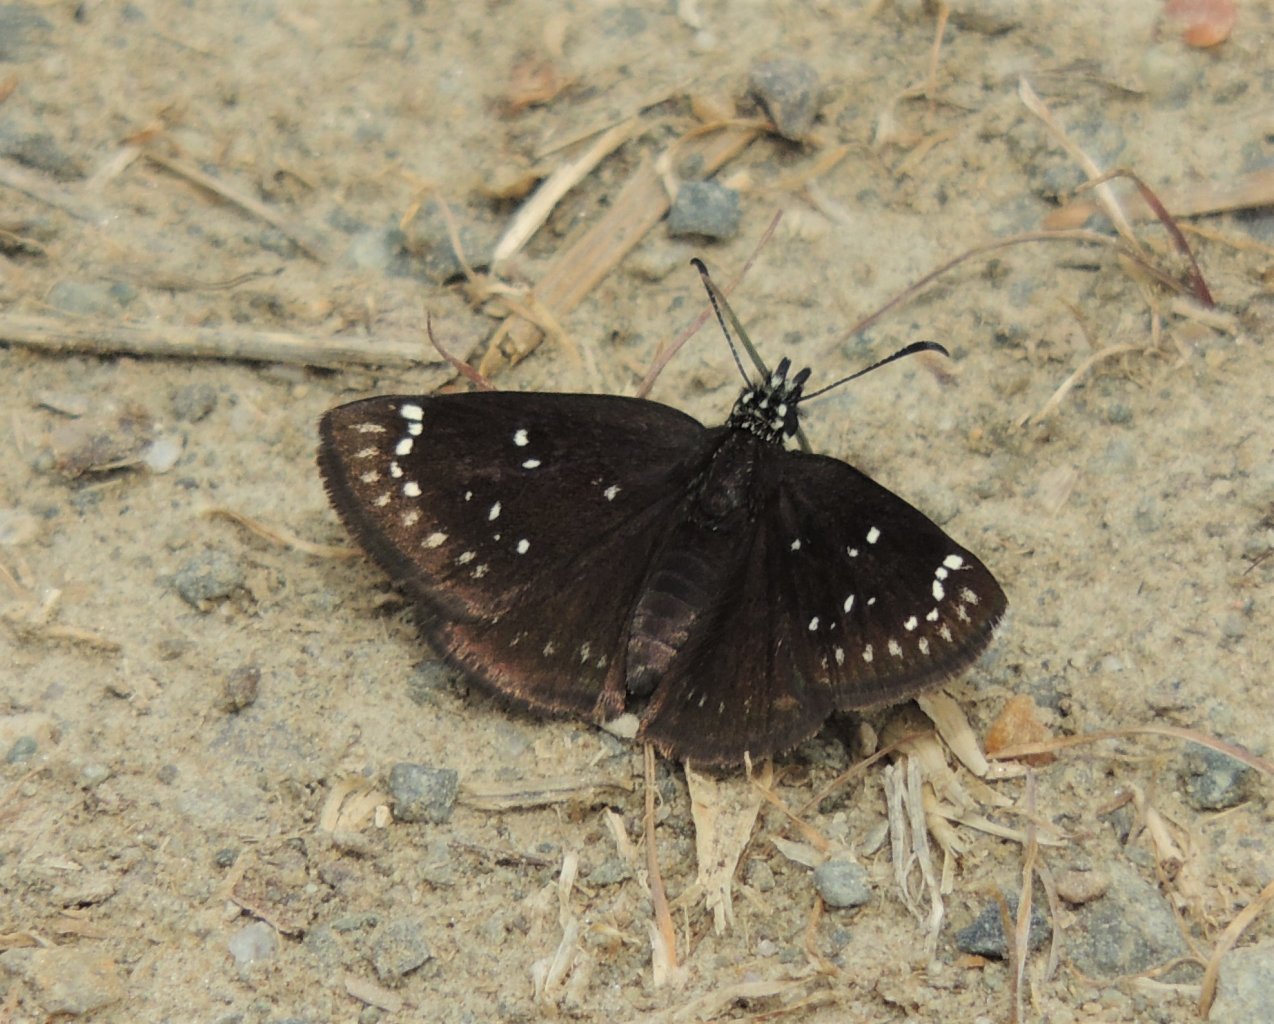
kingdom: Animalia
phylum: Arthropoda
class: Insecta
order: Lepidoptera
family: Hesperiidae
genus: Pholisora
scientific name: Pholisora catullus
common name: Common Sootywing
